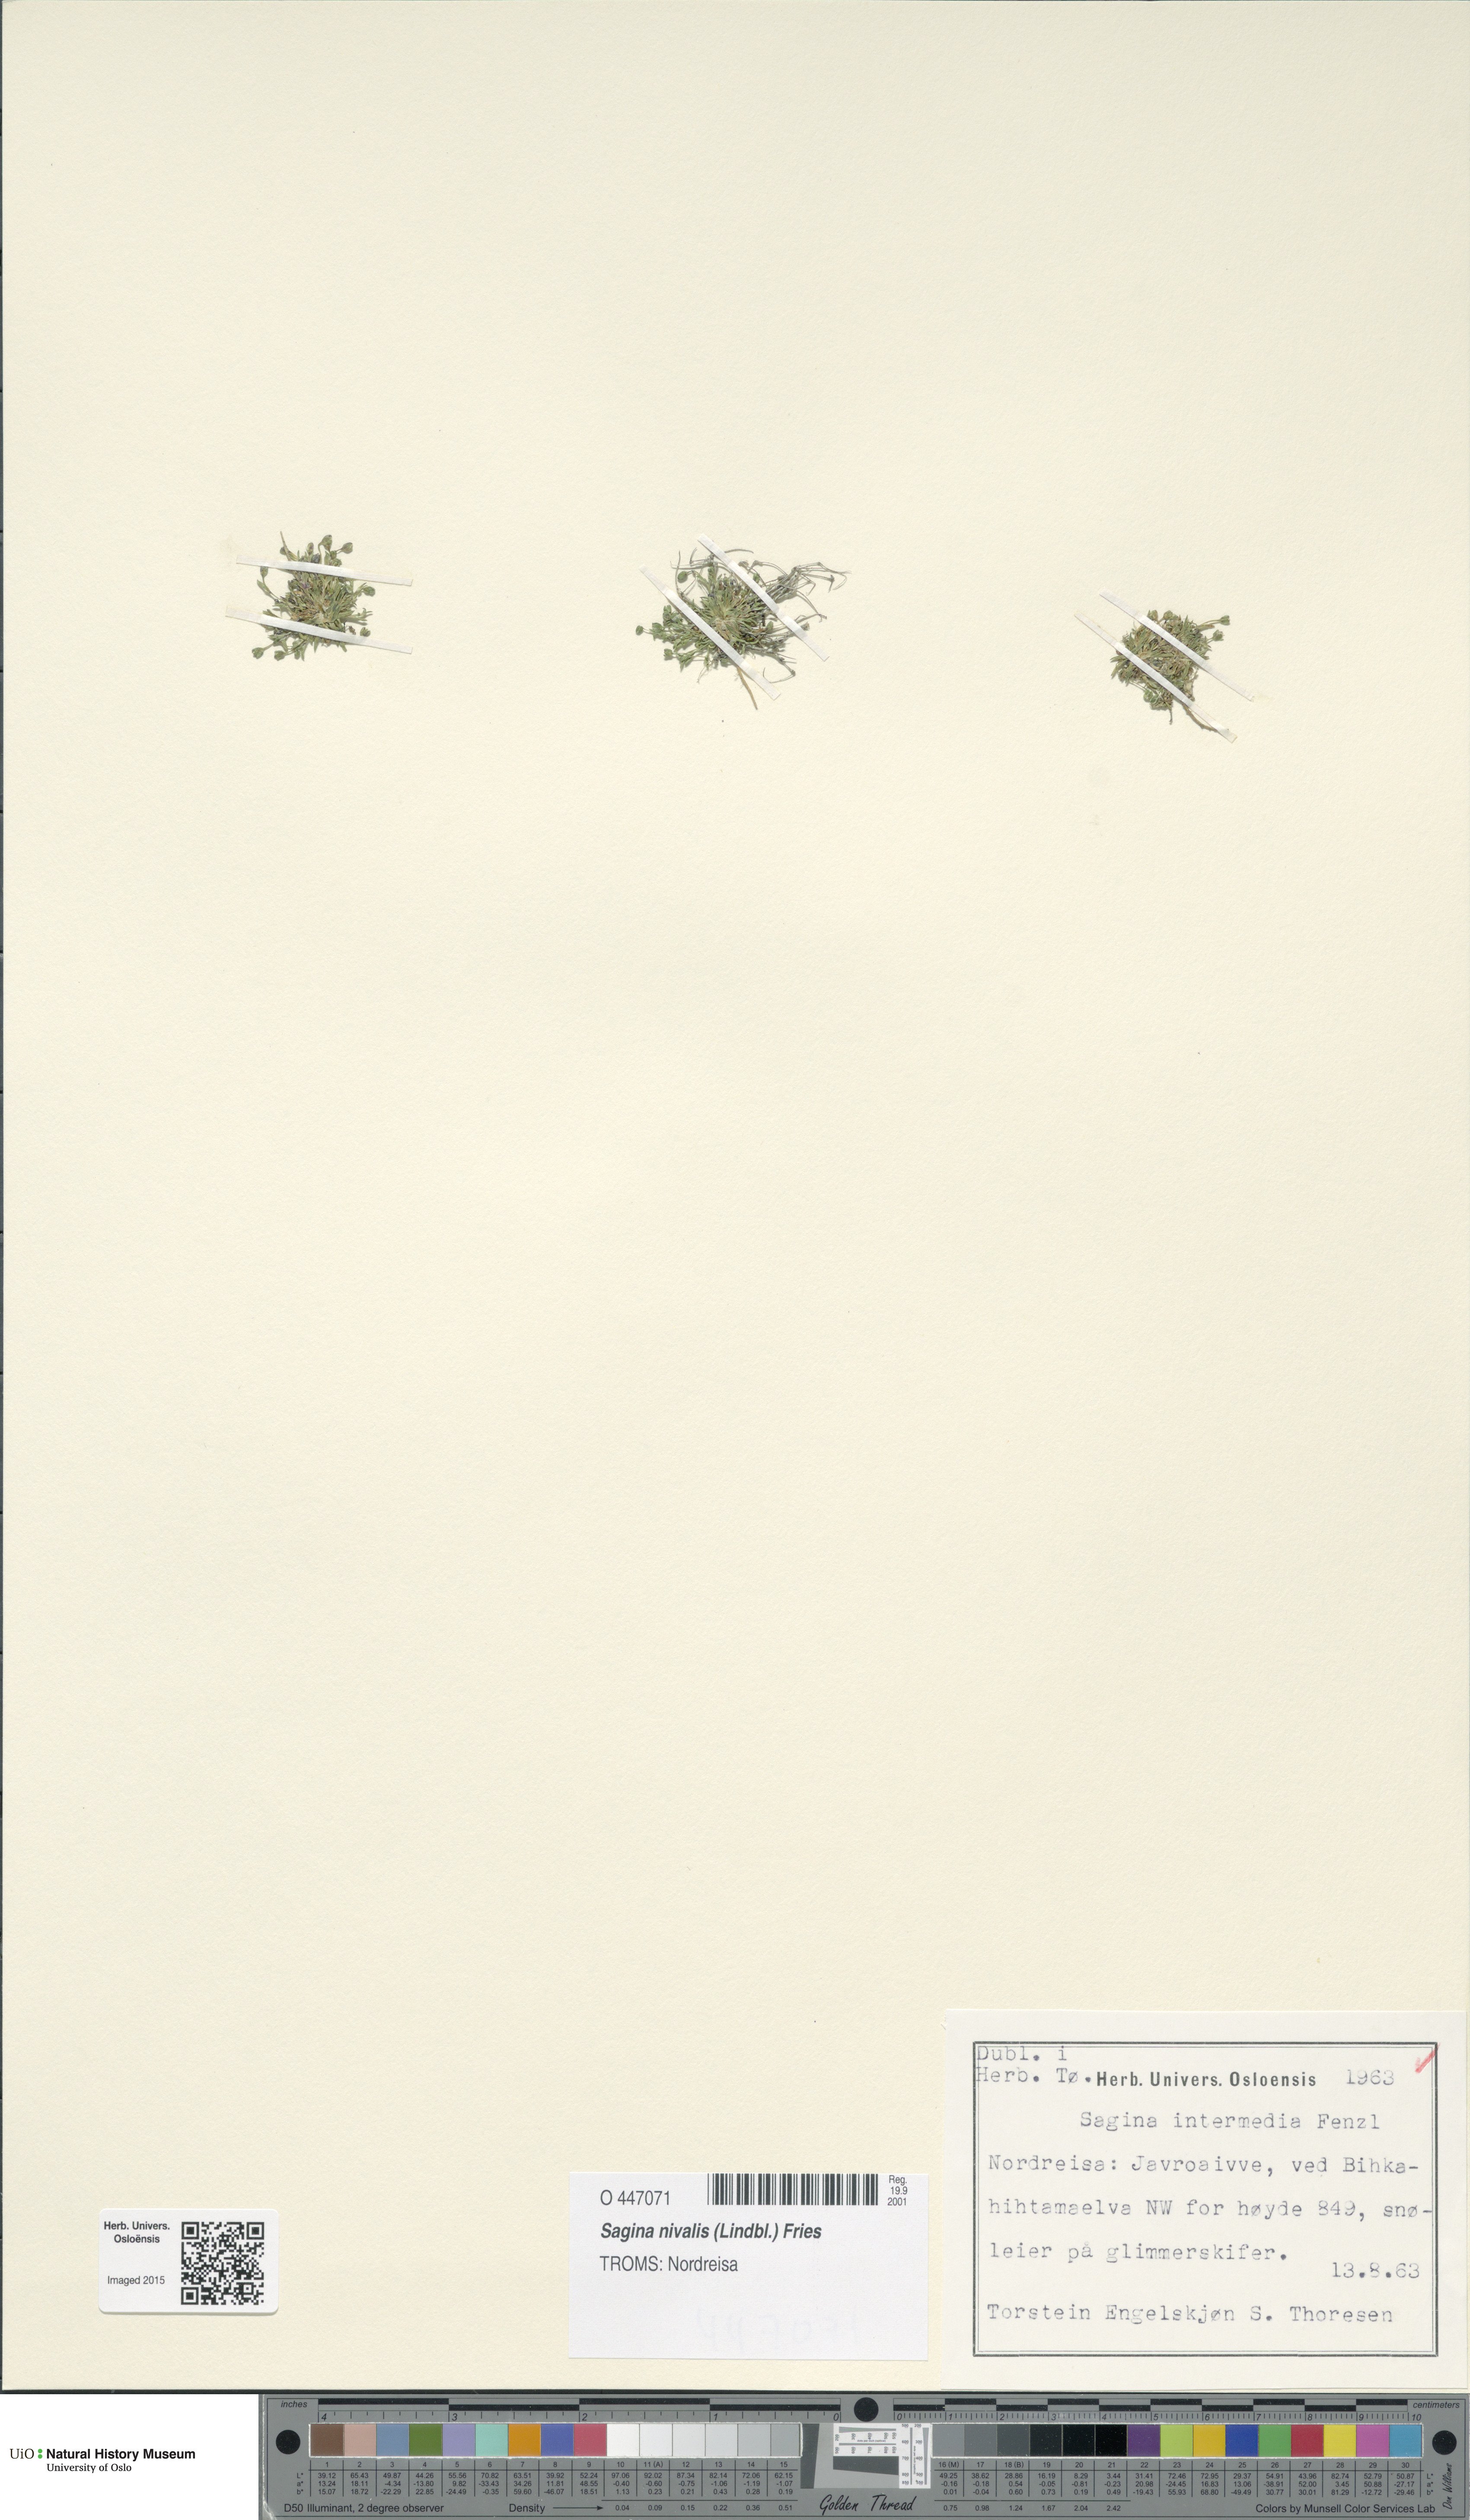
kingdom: Plantae
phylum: Tracheophyta
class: Magnoliopsida
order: Caryophyllales
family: Caryophyllaceae
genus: Sagina
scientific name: Sagina nivalis
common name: Snow pearlwort
